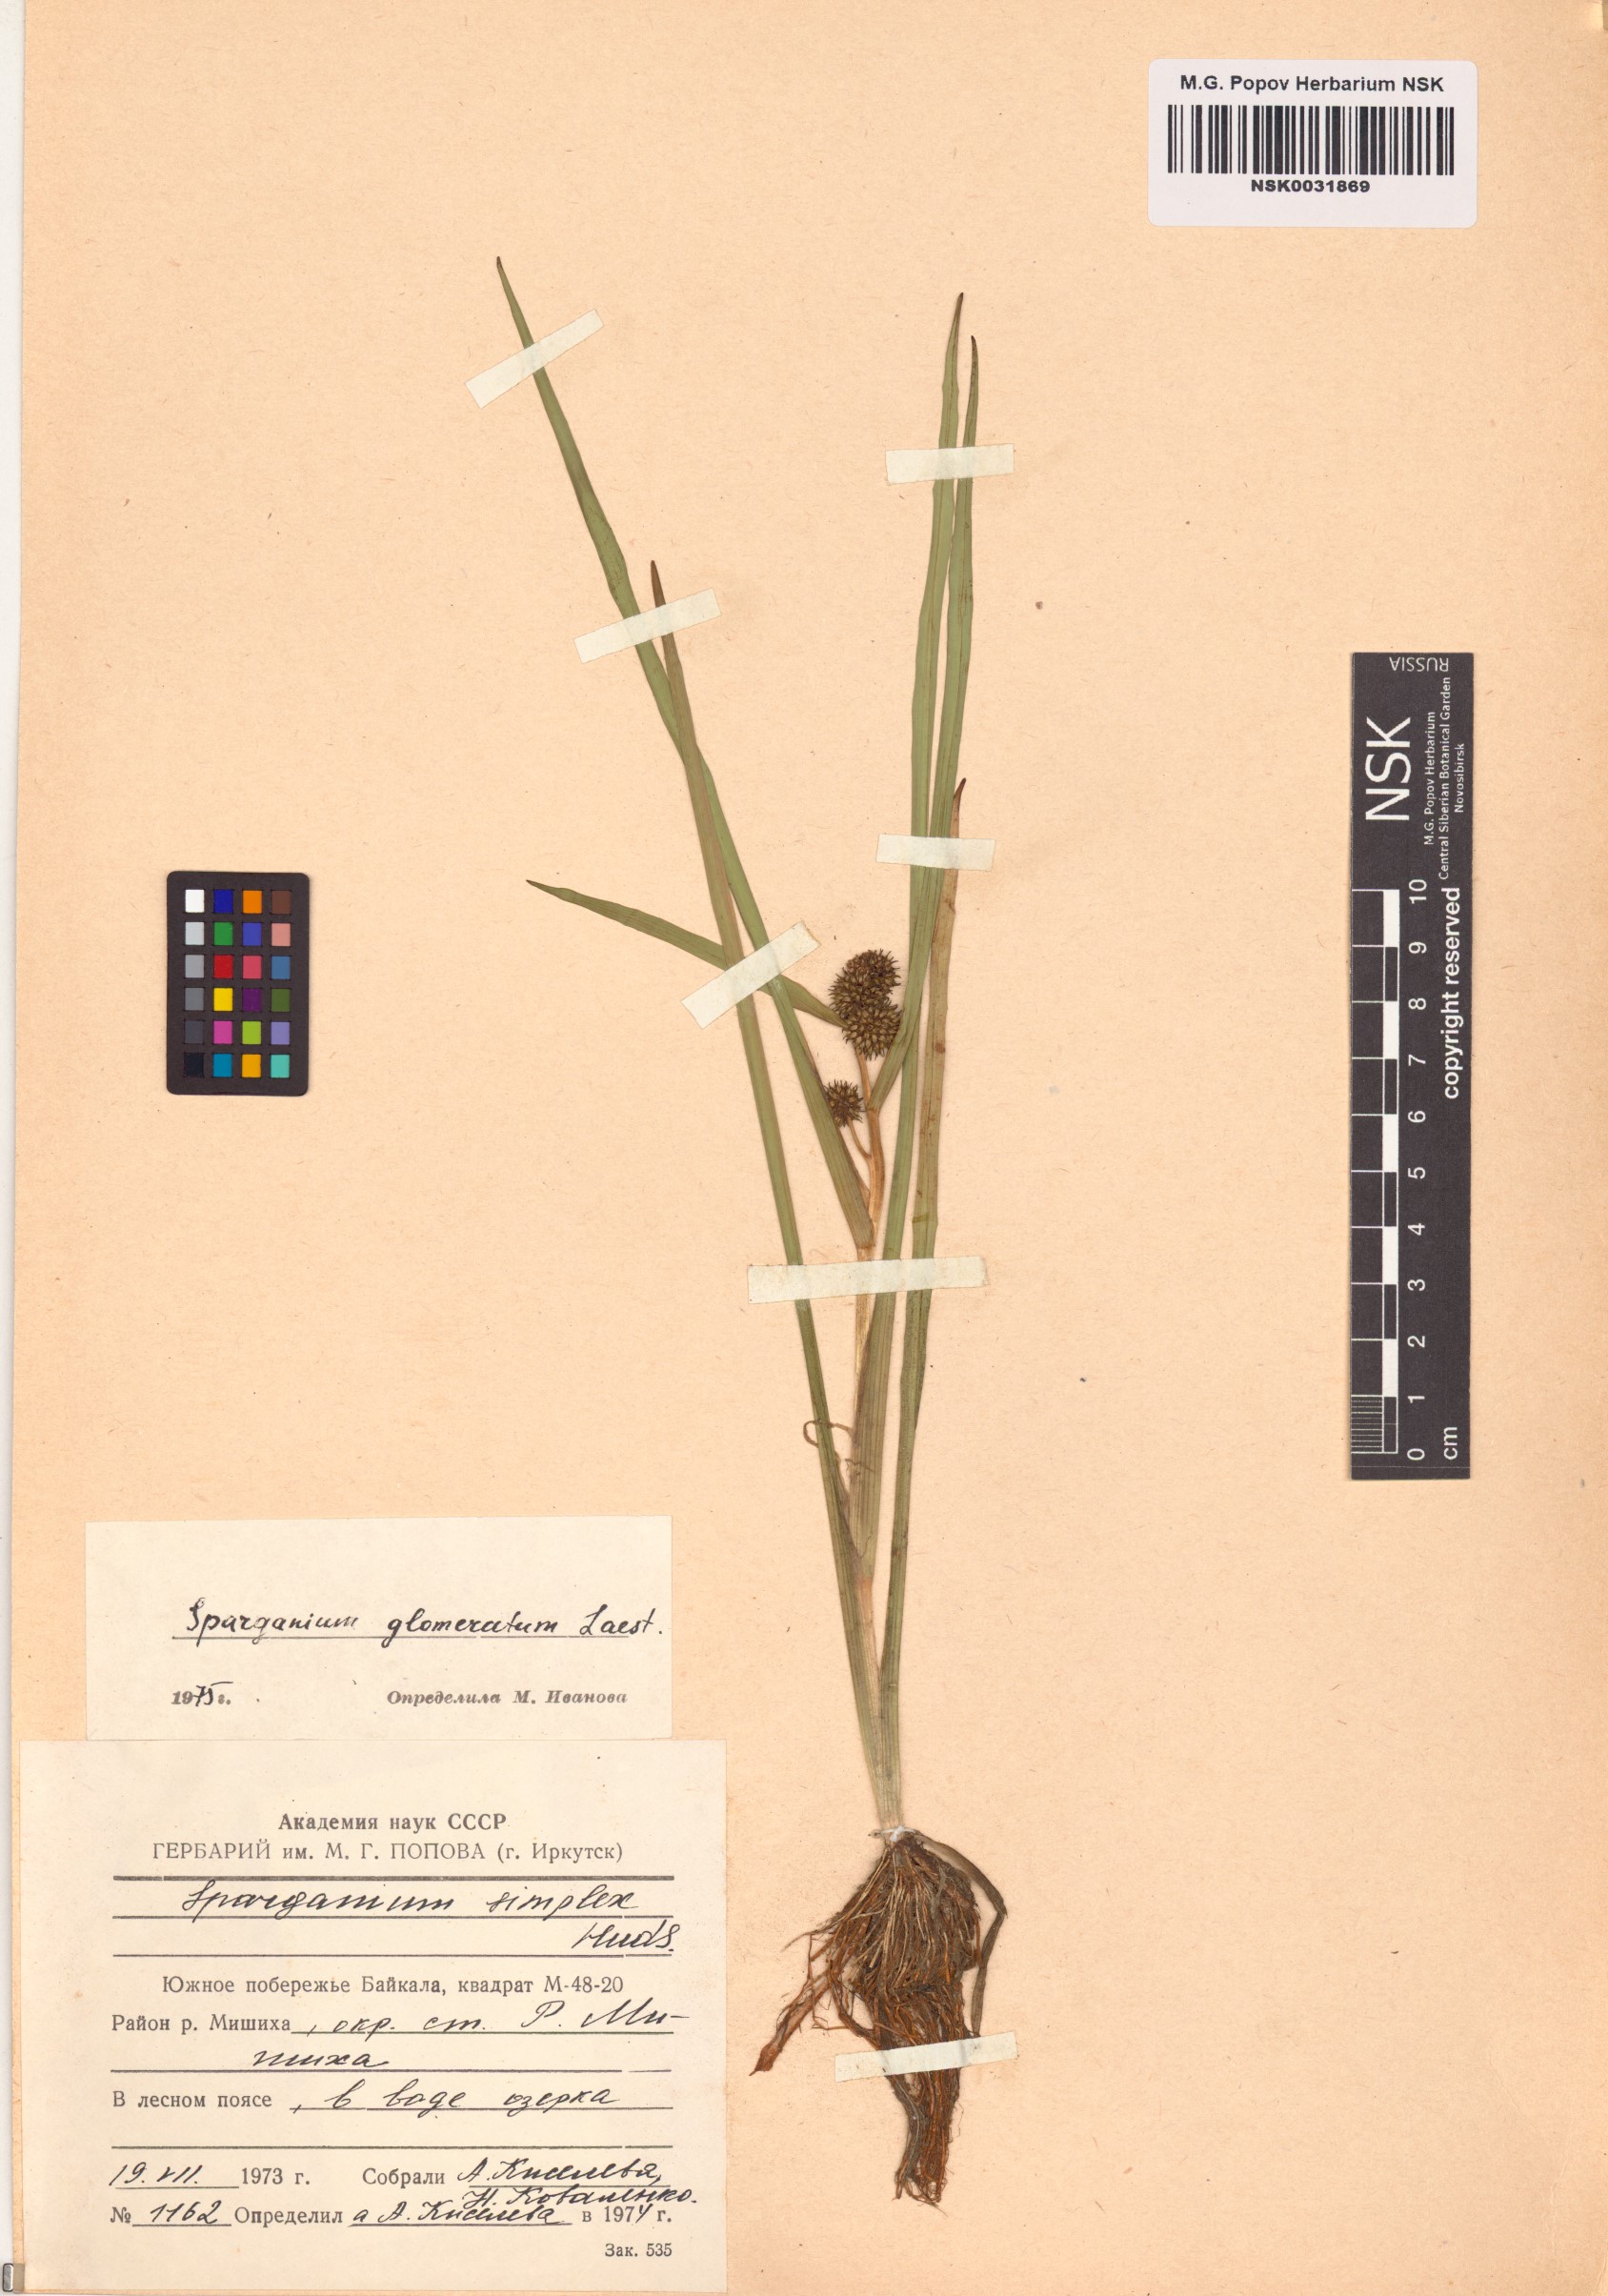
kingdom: Plantae
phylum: Tracheophyta
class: Liliopsida
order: Poales
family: Typhaceae
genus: Sparganium
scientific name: Sparganium glomeratum
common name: Clustered burreed
